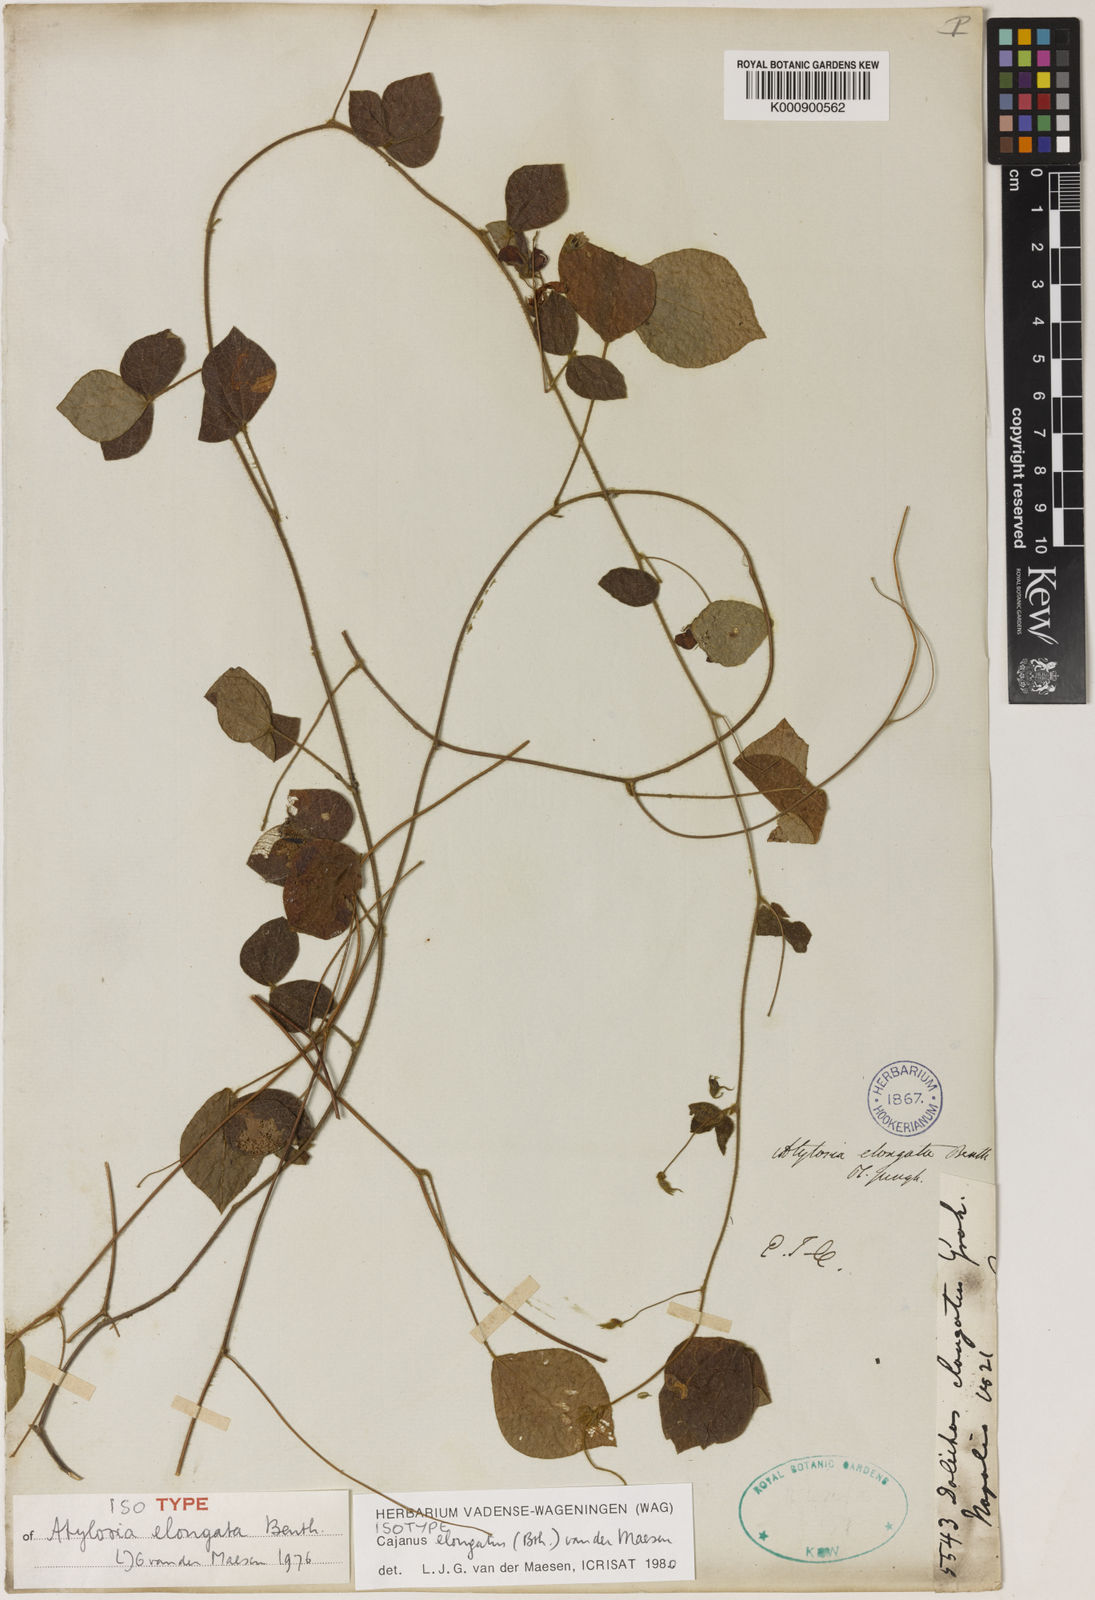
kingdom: Plantae
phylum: Tracheophyta
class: Magnoliopsida
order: Fabales
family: Fabaceae
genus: Cajanus
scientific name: Cajanus elongatus
